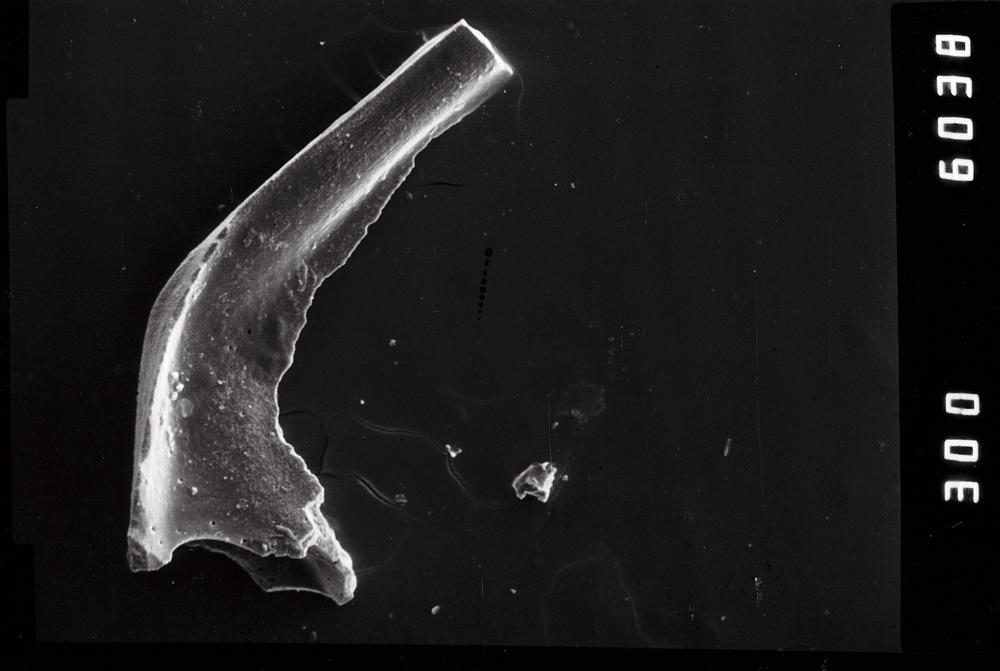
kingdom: Animalia
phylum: Chordata
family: Acodontidae
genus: Tripodus
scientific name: Tripodus
